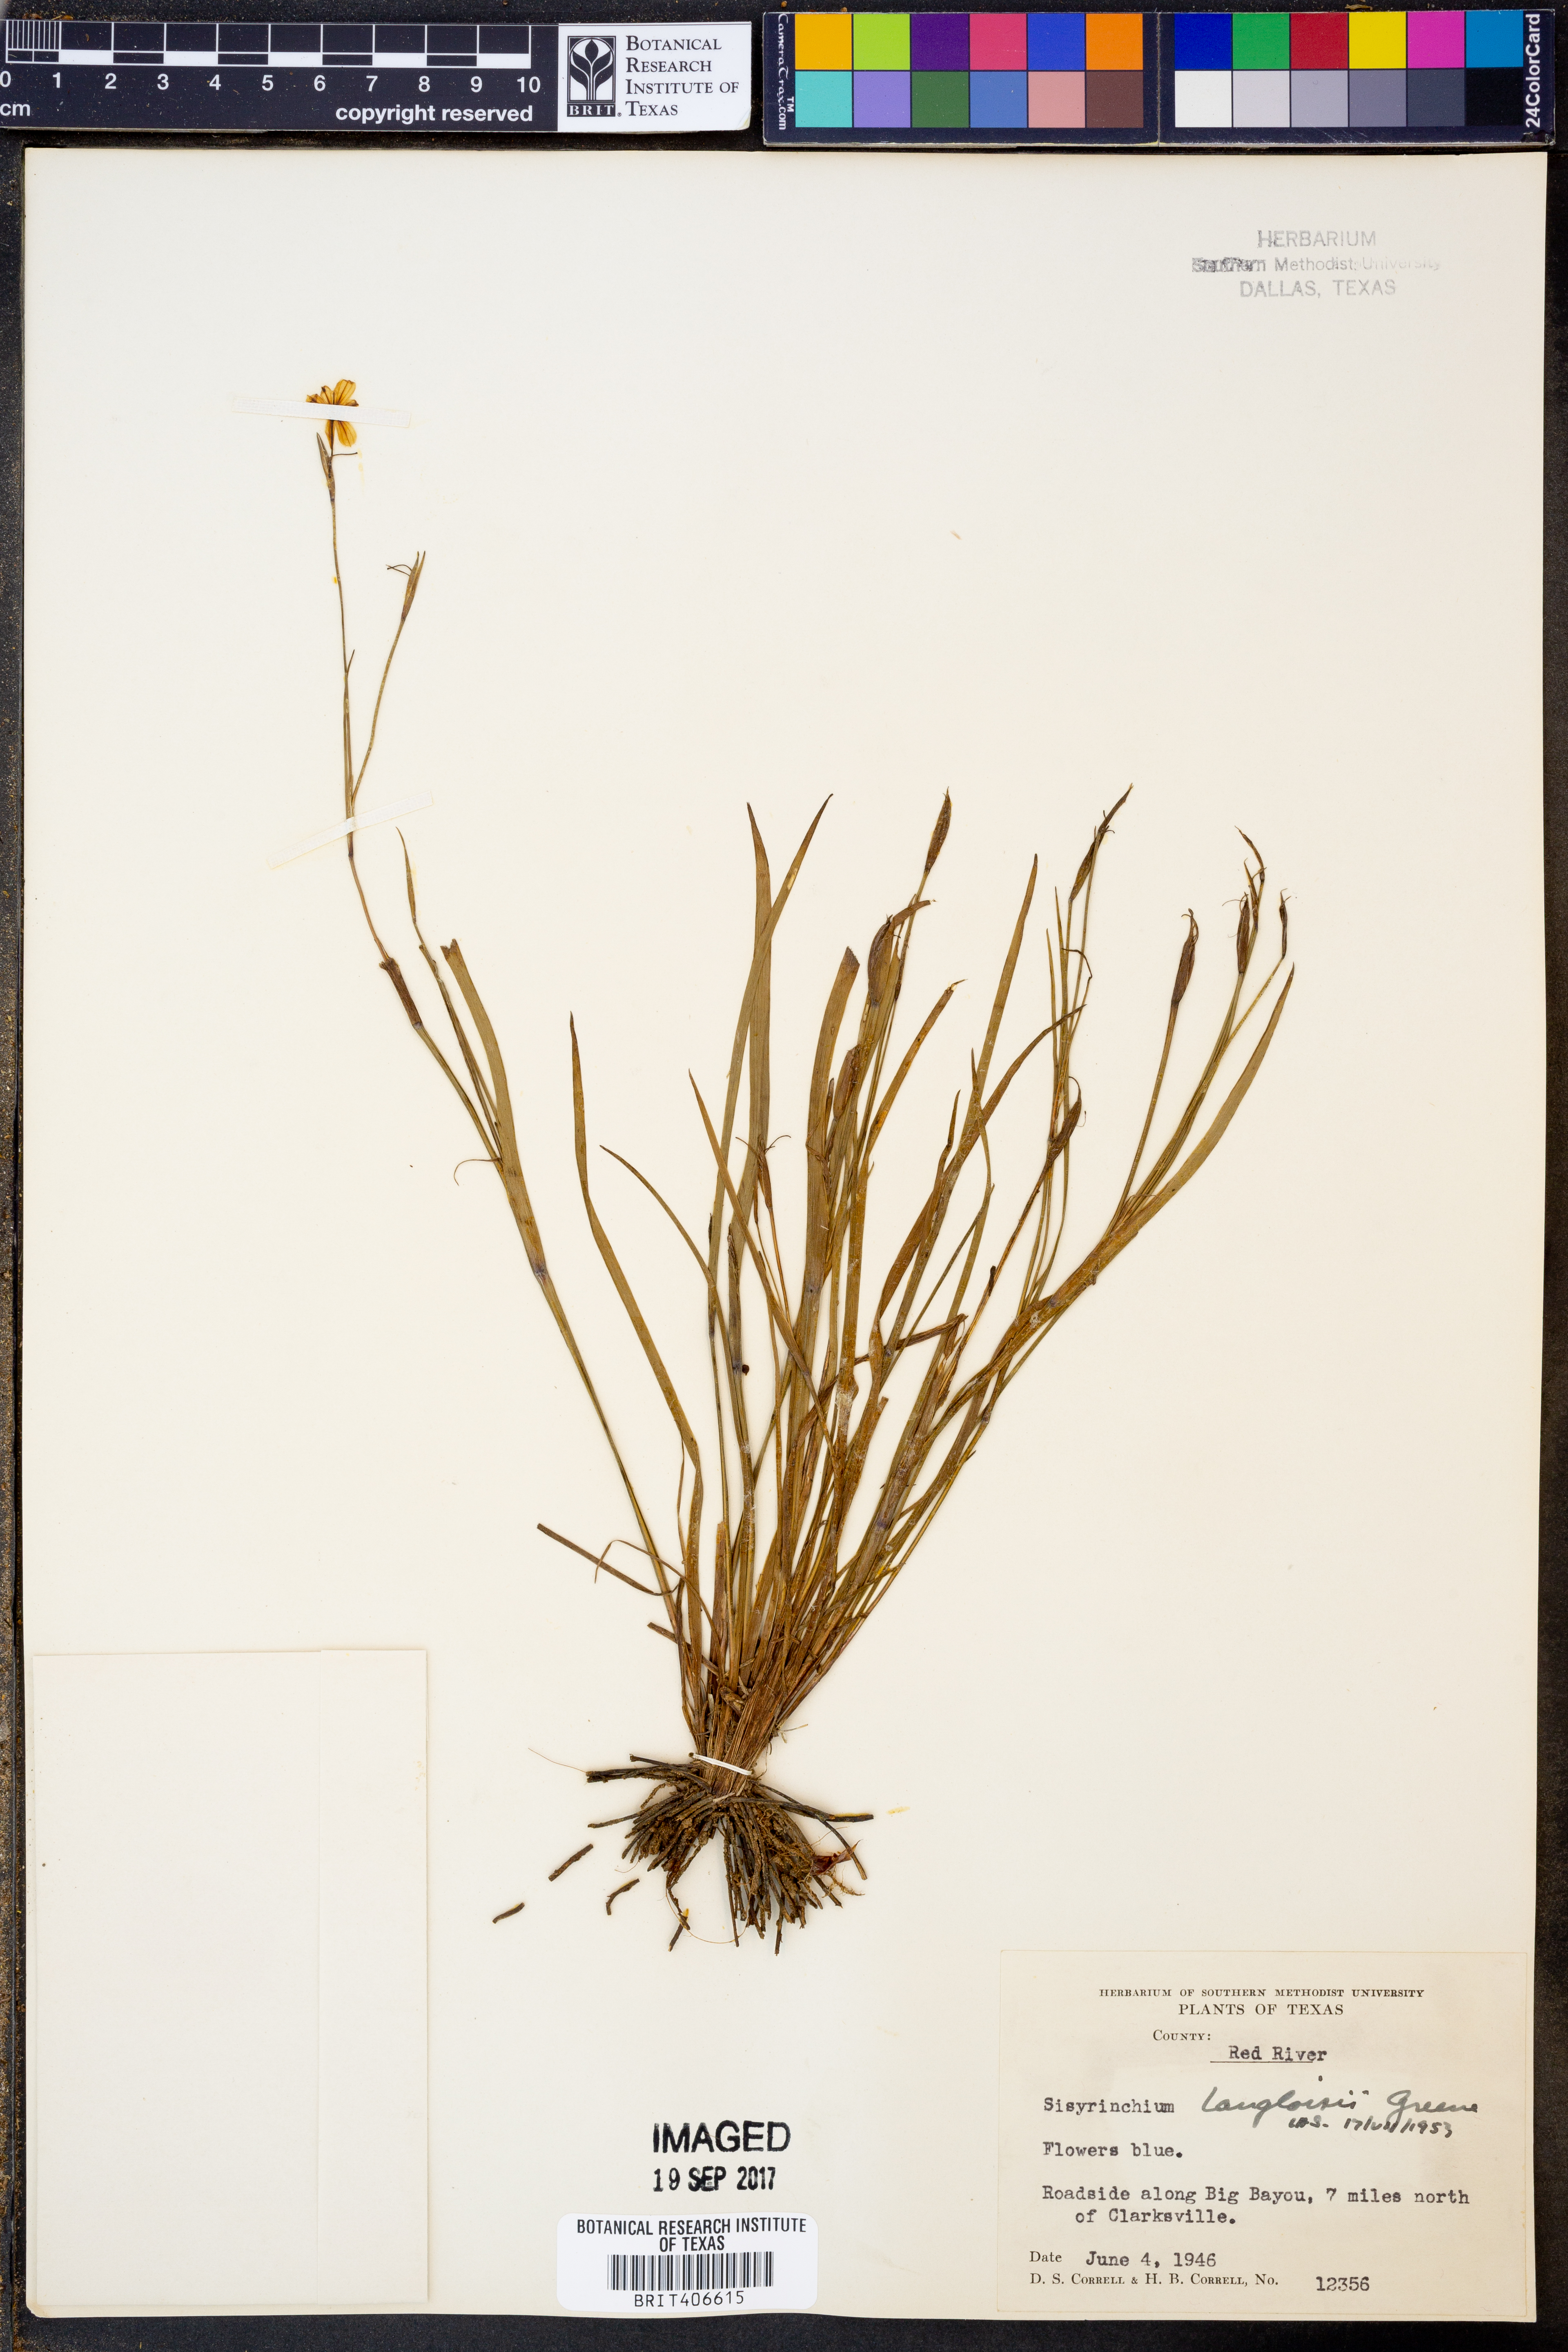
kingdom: Plantae
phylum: Tracheophyta
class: Liliopsida
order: Asparagales
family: Iridaceae
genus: Sisyrinchium
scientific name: Sisyrinchium langloisii
